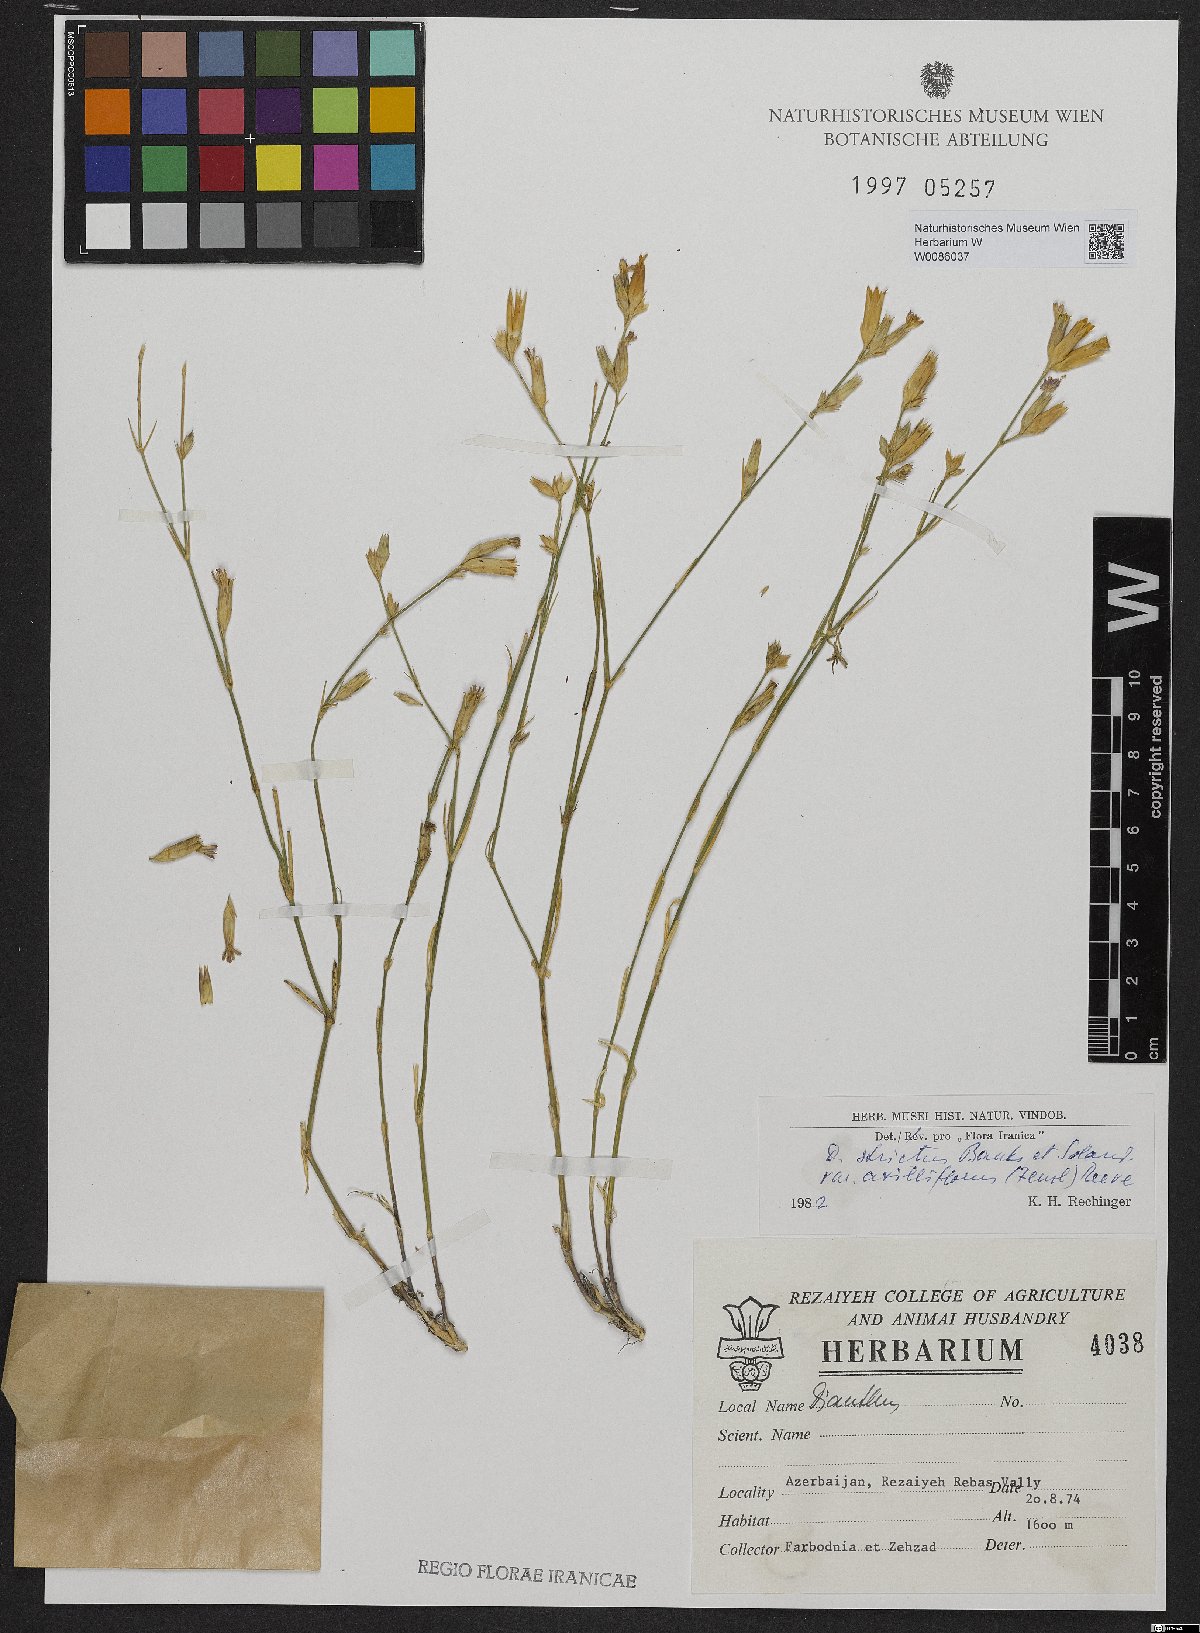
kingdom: Plantae
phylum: Tracheophyta
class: Magnoliopsida
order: Caryophyllales
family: Caryophyllaceae
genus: Dianthus
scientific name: Dianthus strictus
